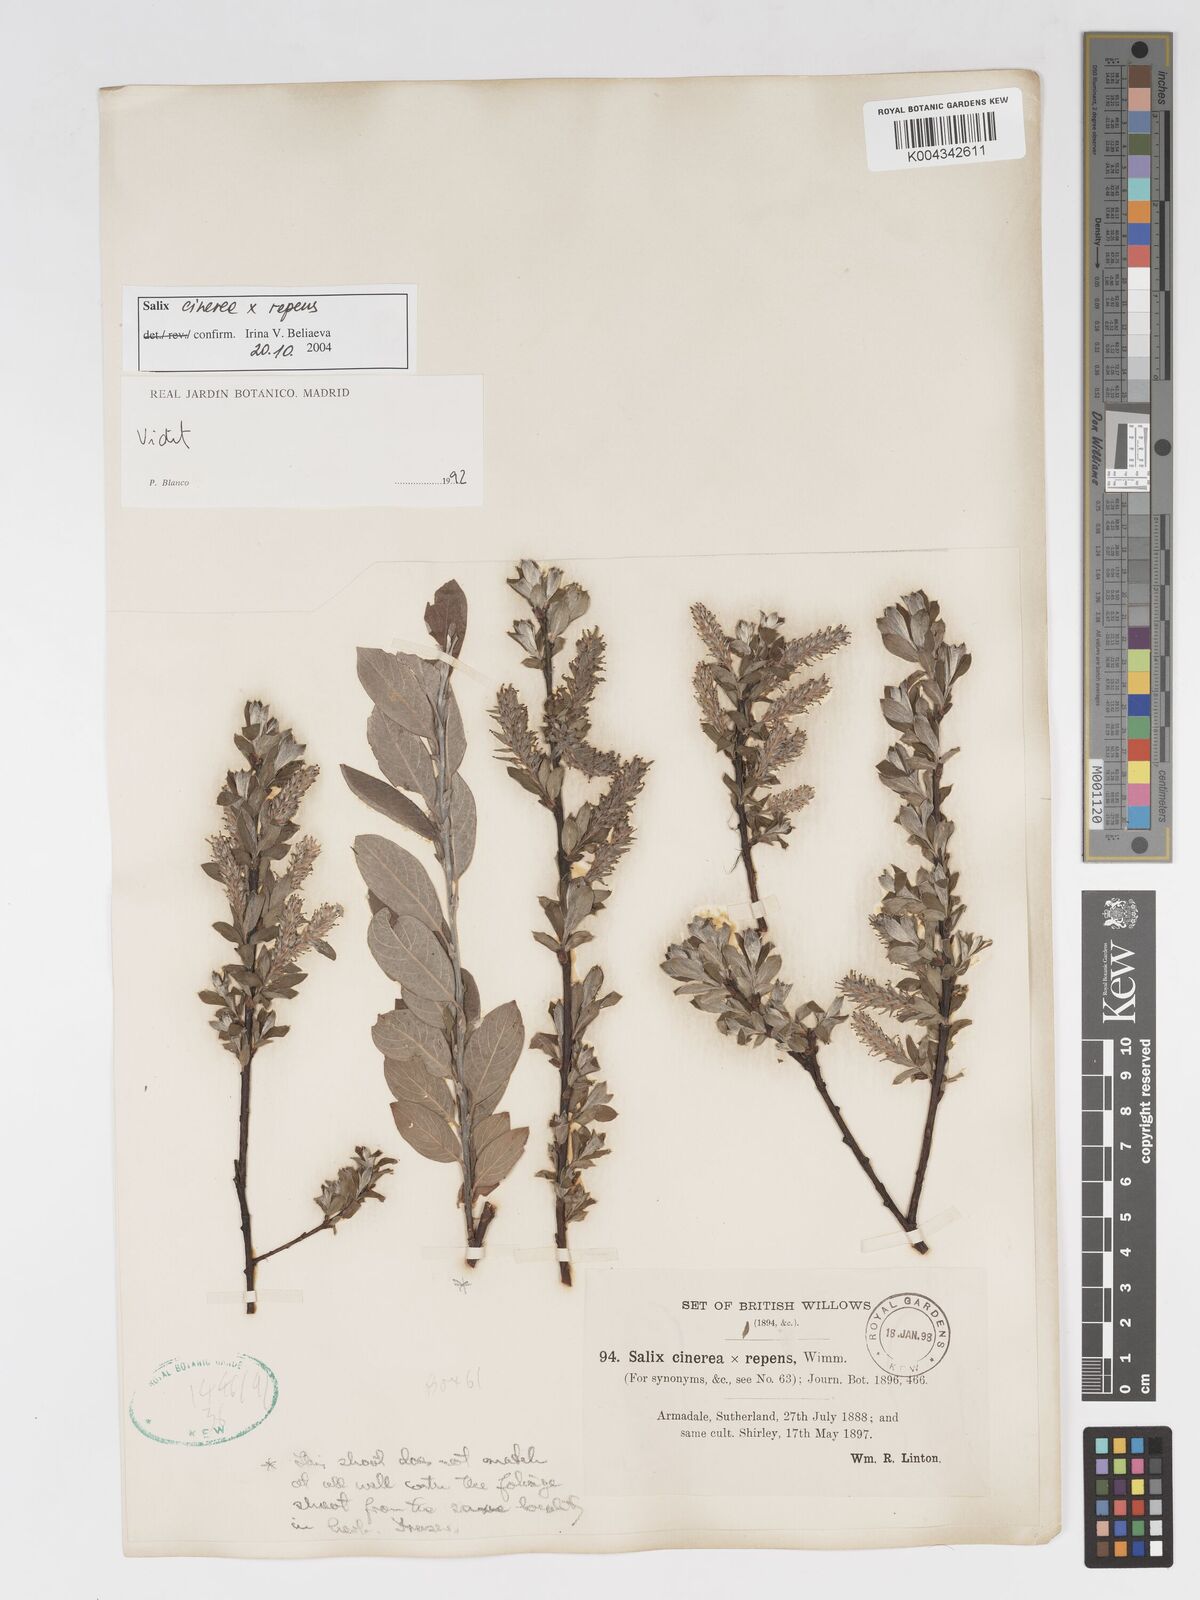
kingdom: Plantae
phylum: Tracheophyta
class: Magnoliopsida
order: Malpighiales
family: Salicaceae
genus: Salix
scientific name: Salix cinerea
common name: Common sallow
